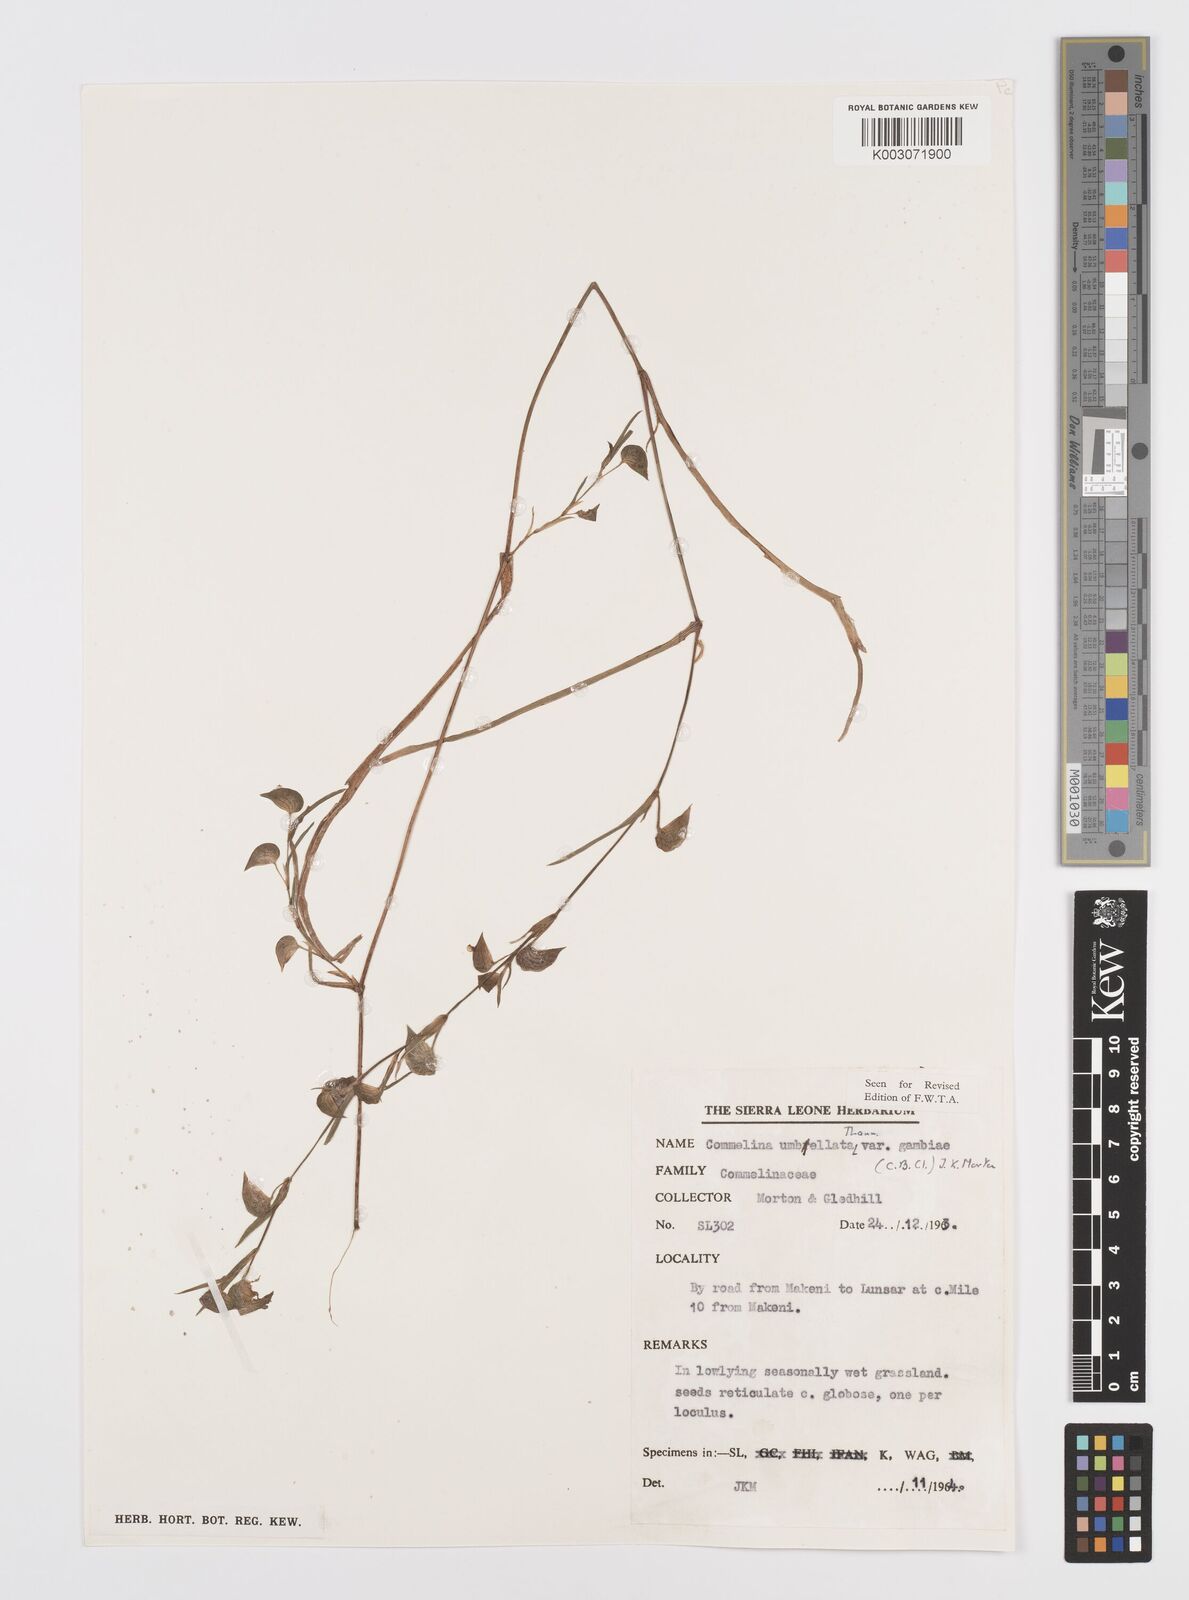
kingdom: Plantae
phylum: Tracheophyta
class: Liliopsida
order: Commelinales
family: Commelinaceae
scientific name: Commelinaceae
